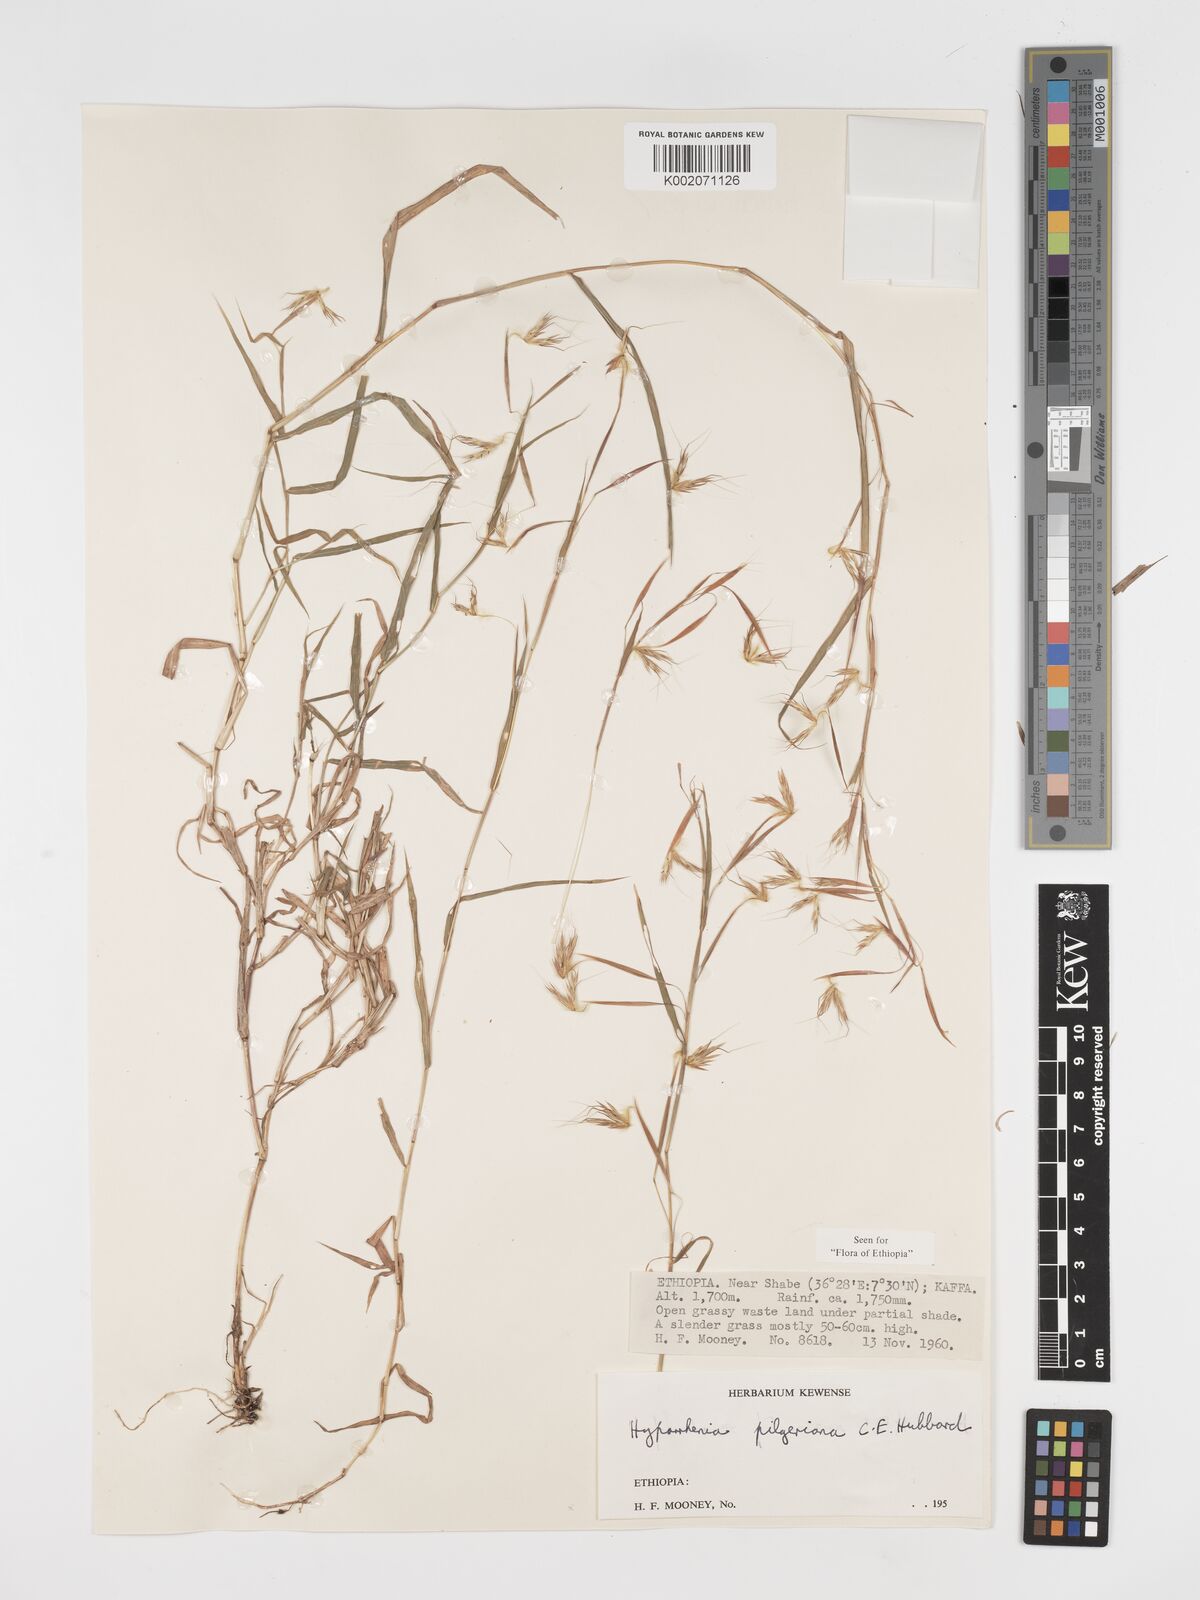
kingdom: Plantae
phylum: Tracheophyta
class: Liliopsida
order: Poales
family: Poaceae
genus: Hyparrhenia
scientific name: Hyparrhenia pilgeriana
